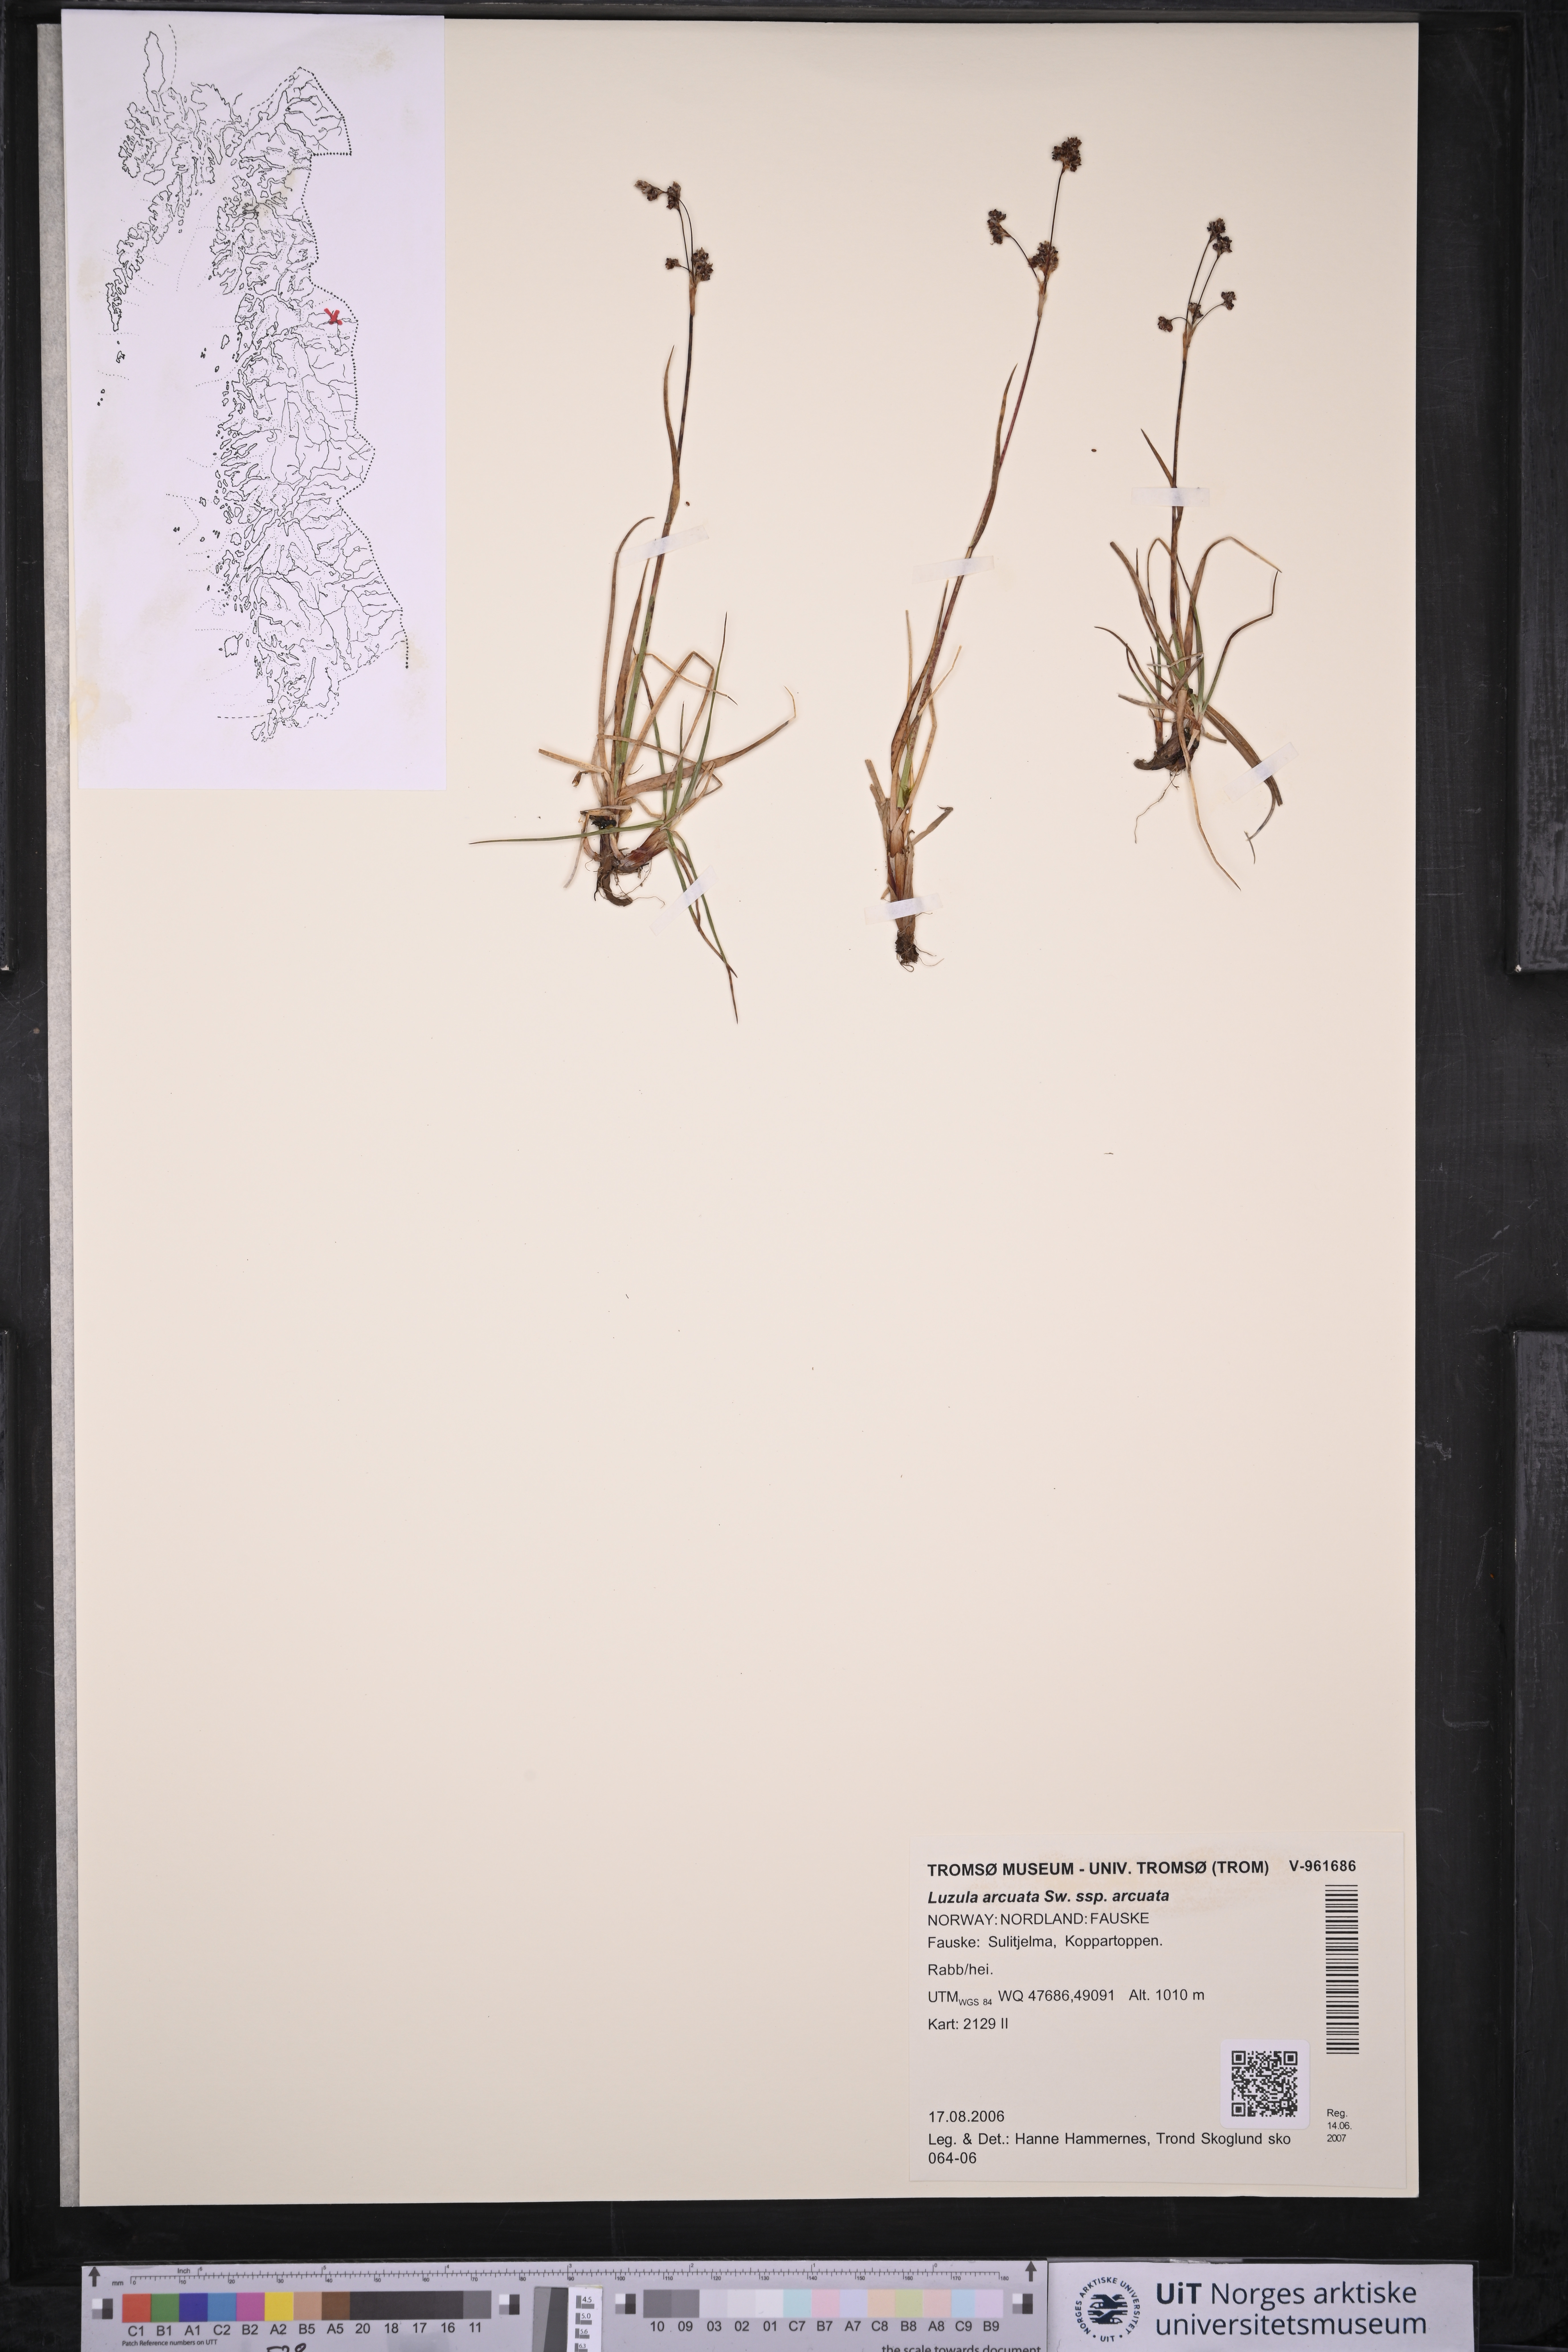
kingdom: Plantae
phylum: Tracheophyta
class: Liliopsida
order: Poales
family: Juncaceae
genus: Luzula
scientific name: Luzula arcuata
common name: Curved wood-rush
